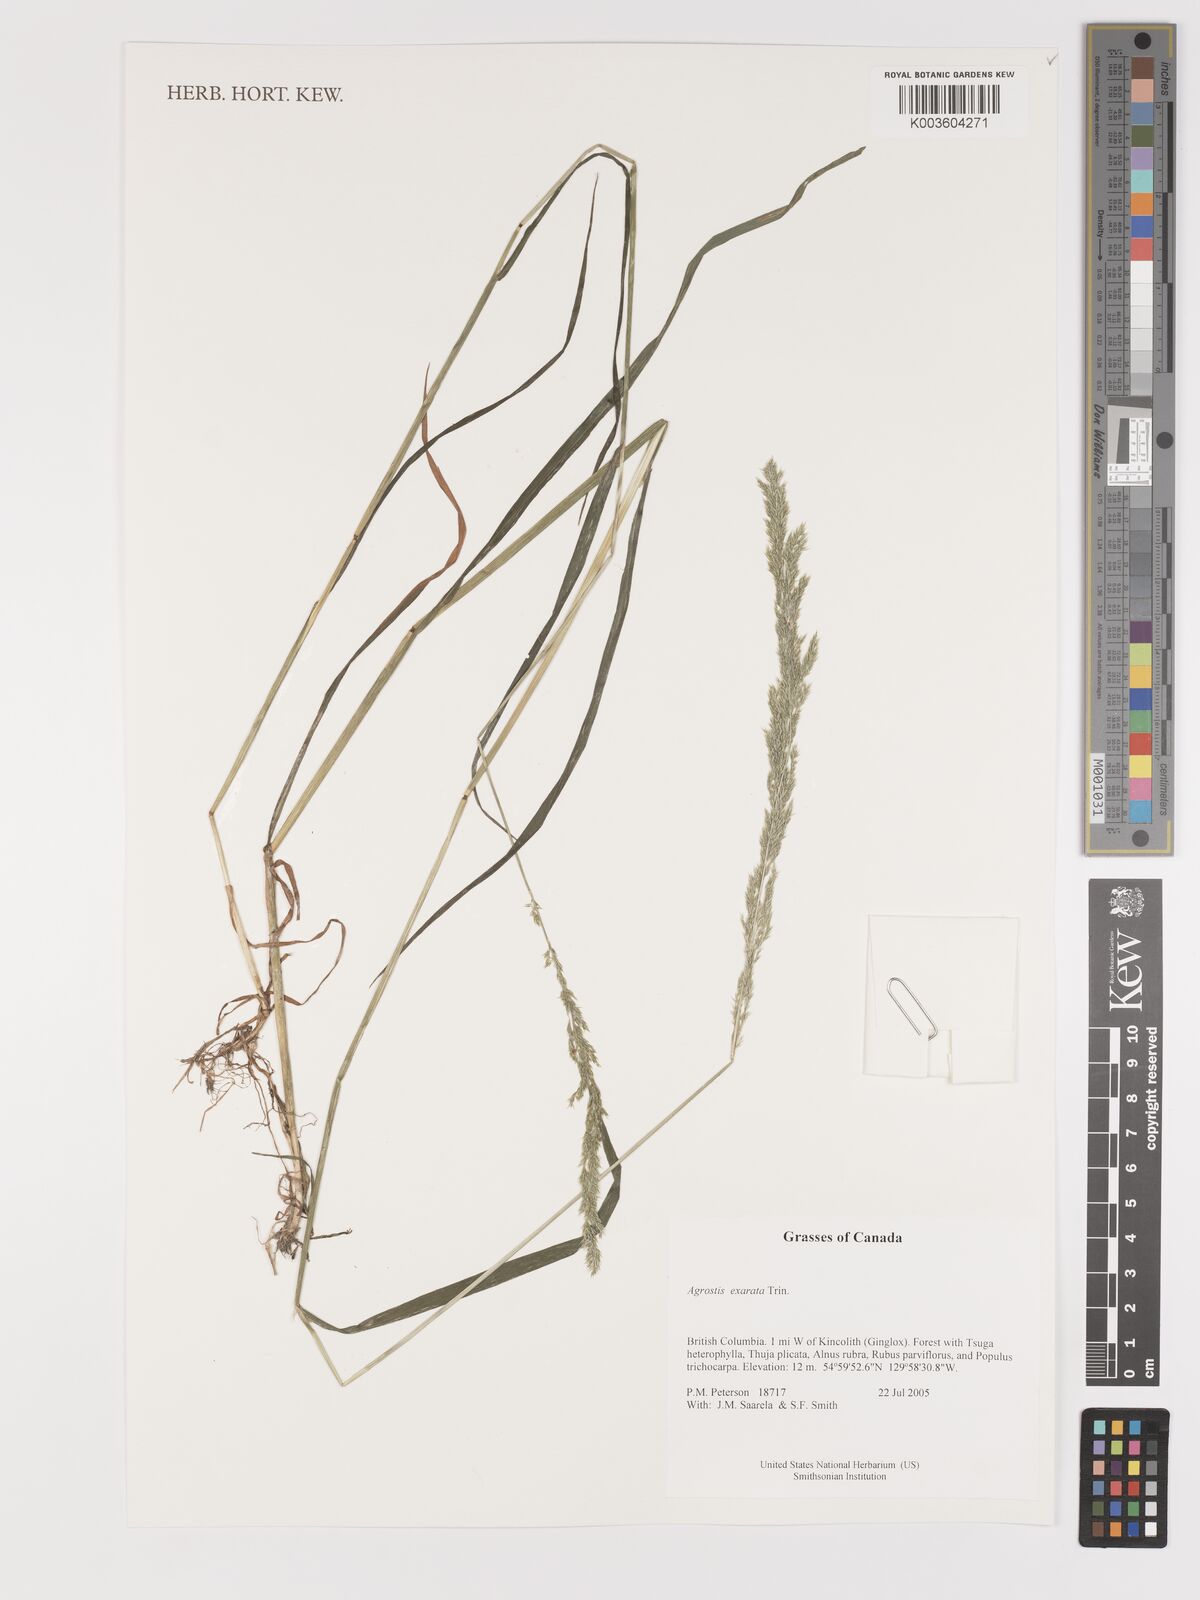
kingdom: Plantae
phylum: Tracheophyta
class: Liliopsida
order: Poales
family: Poaceae
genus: Agrostis
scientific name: Agrostis exarata
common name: Spike bent
